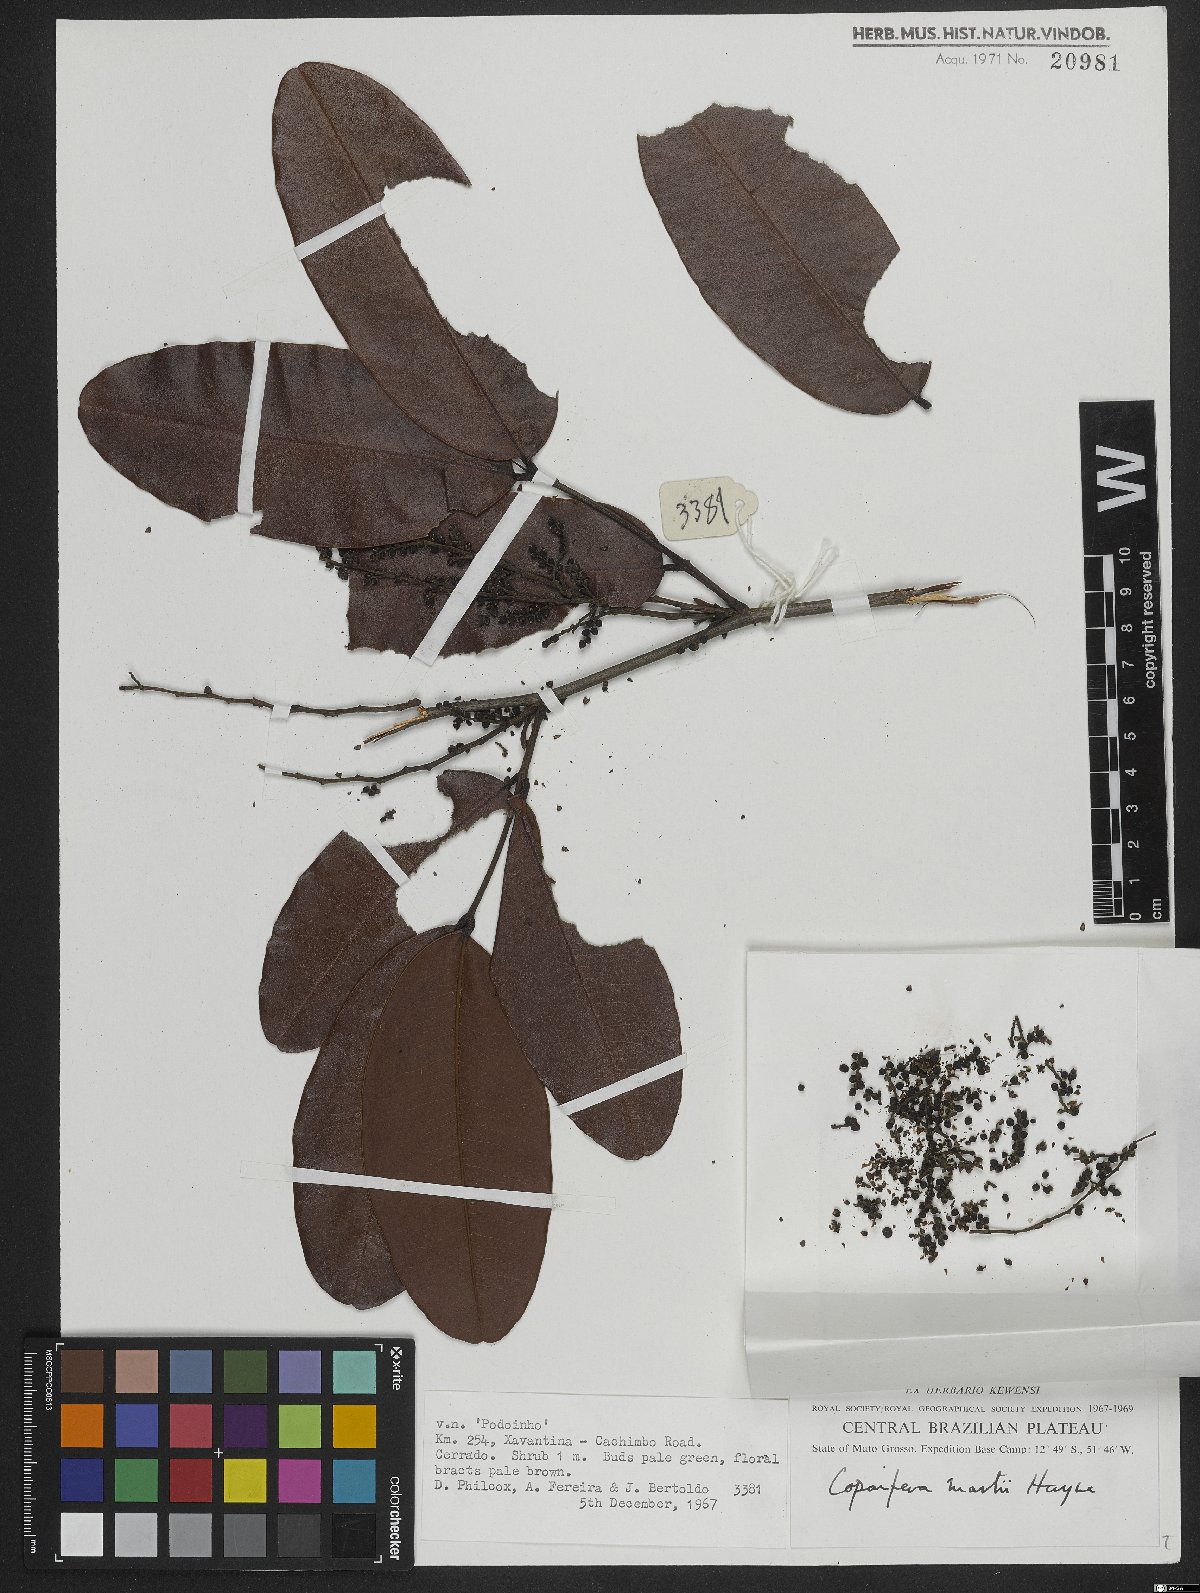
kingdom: Plantae
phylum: Tracheophyta
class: Magnoliopsida
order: Fabales
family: Fabaceae
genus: Copaifera
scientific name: Copaifera martii
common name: Copaiba
